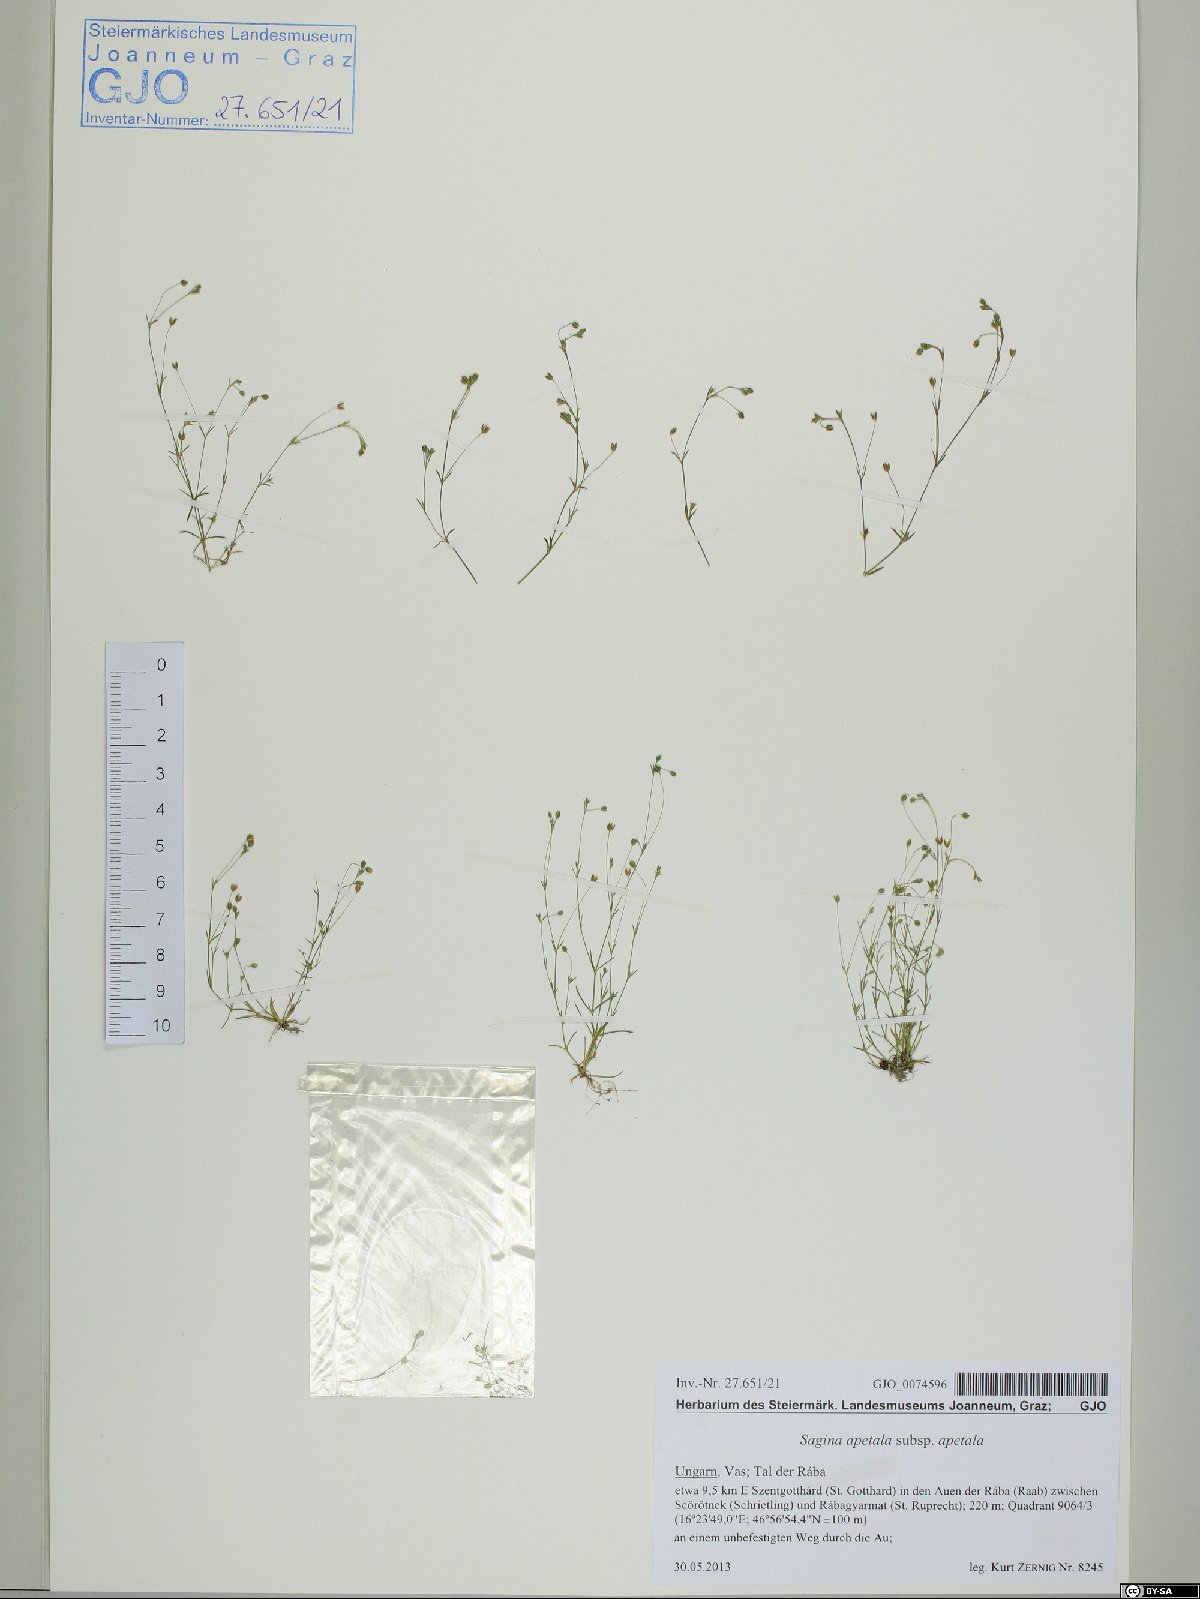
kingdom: Plantae
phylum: Tracheophyta
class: Magnoliopsida
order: Caryophyllales
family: Caryophyllaceae
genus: Sagina
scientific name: Sagina apetala
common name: Annual pearlwort
